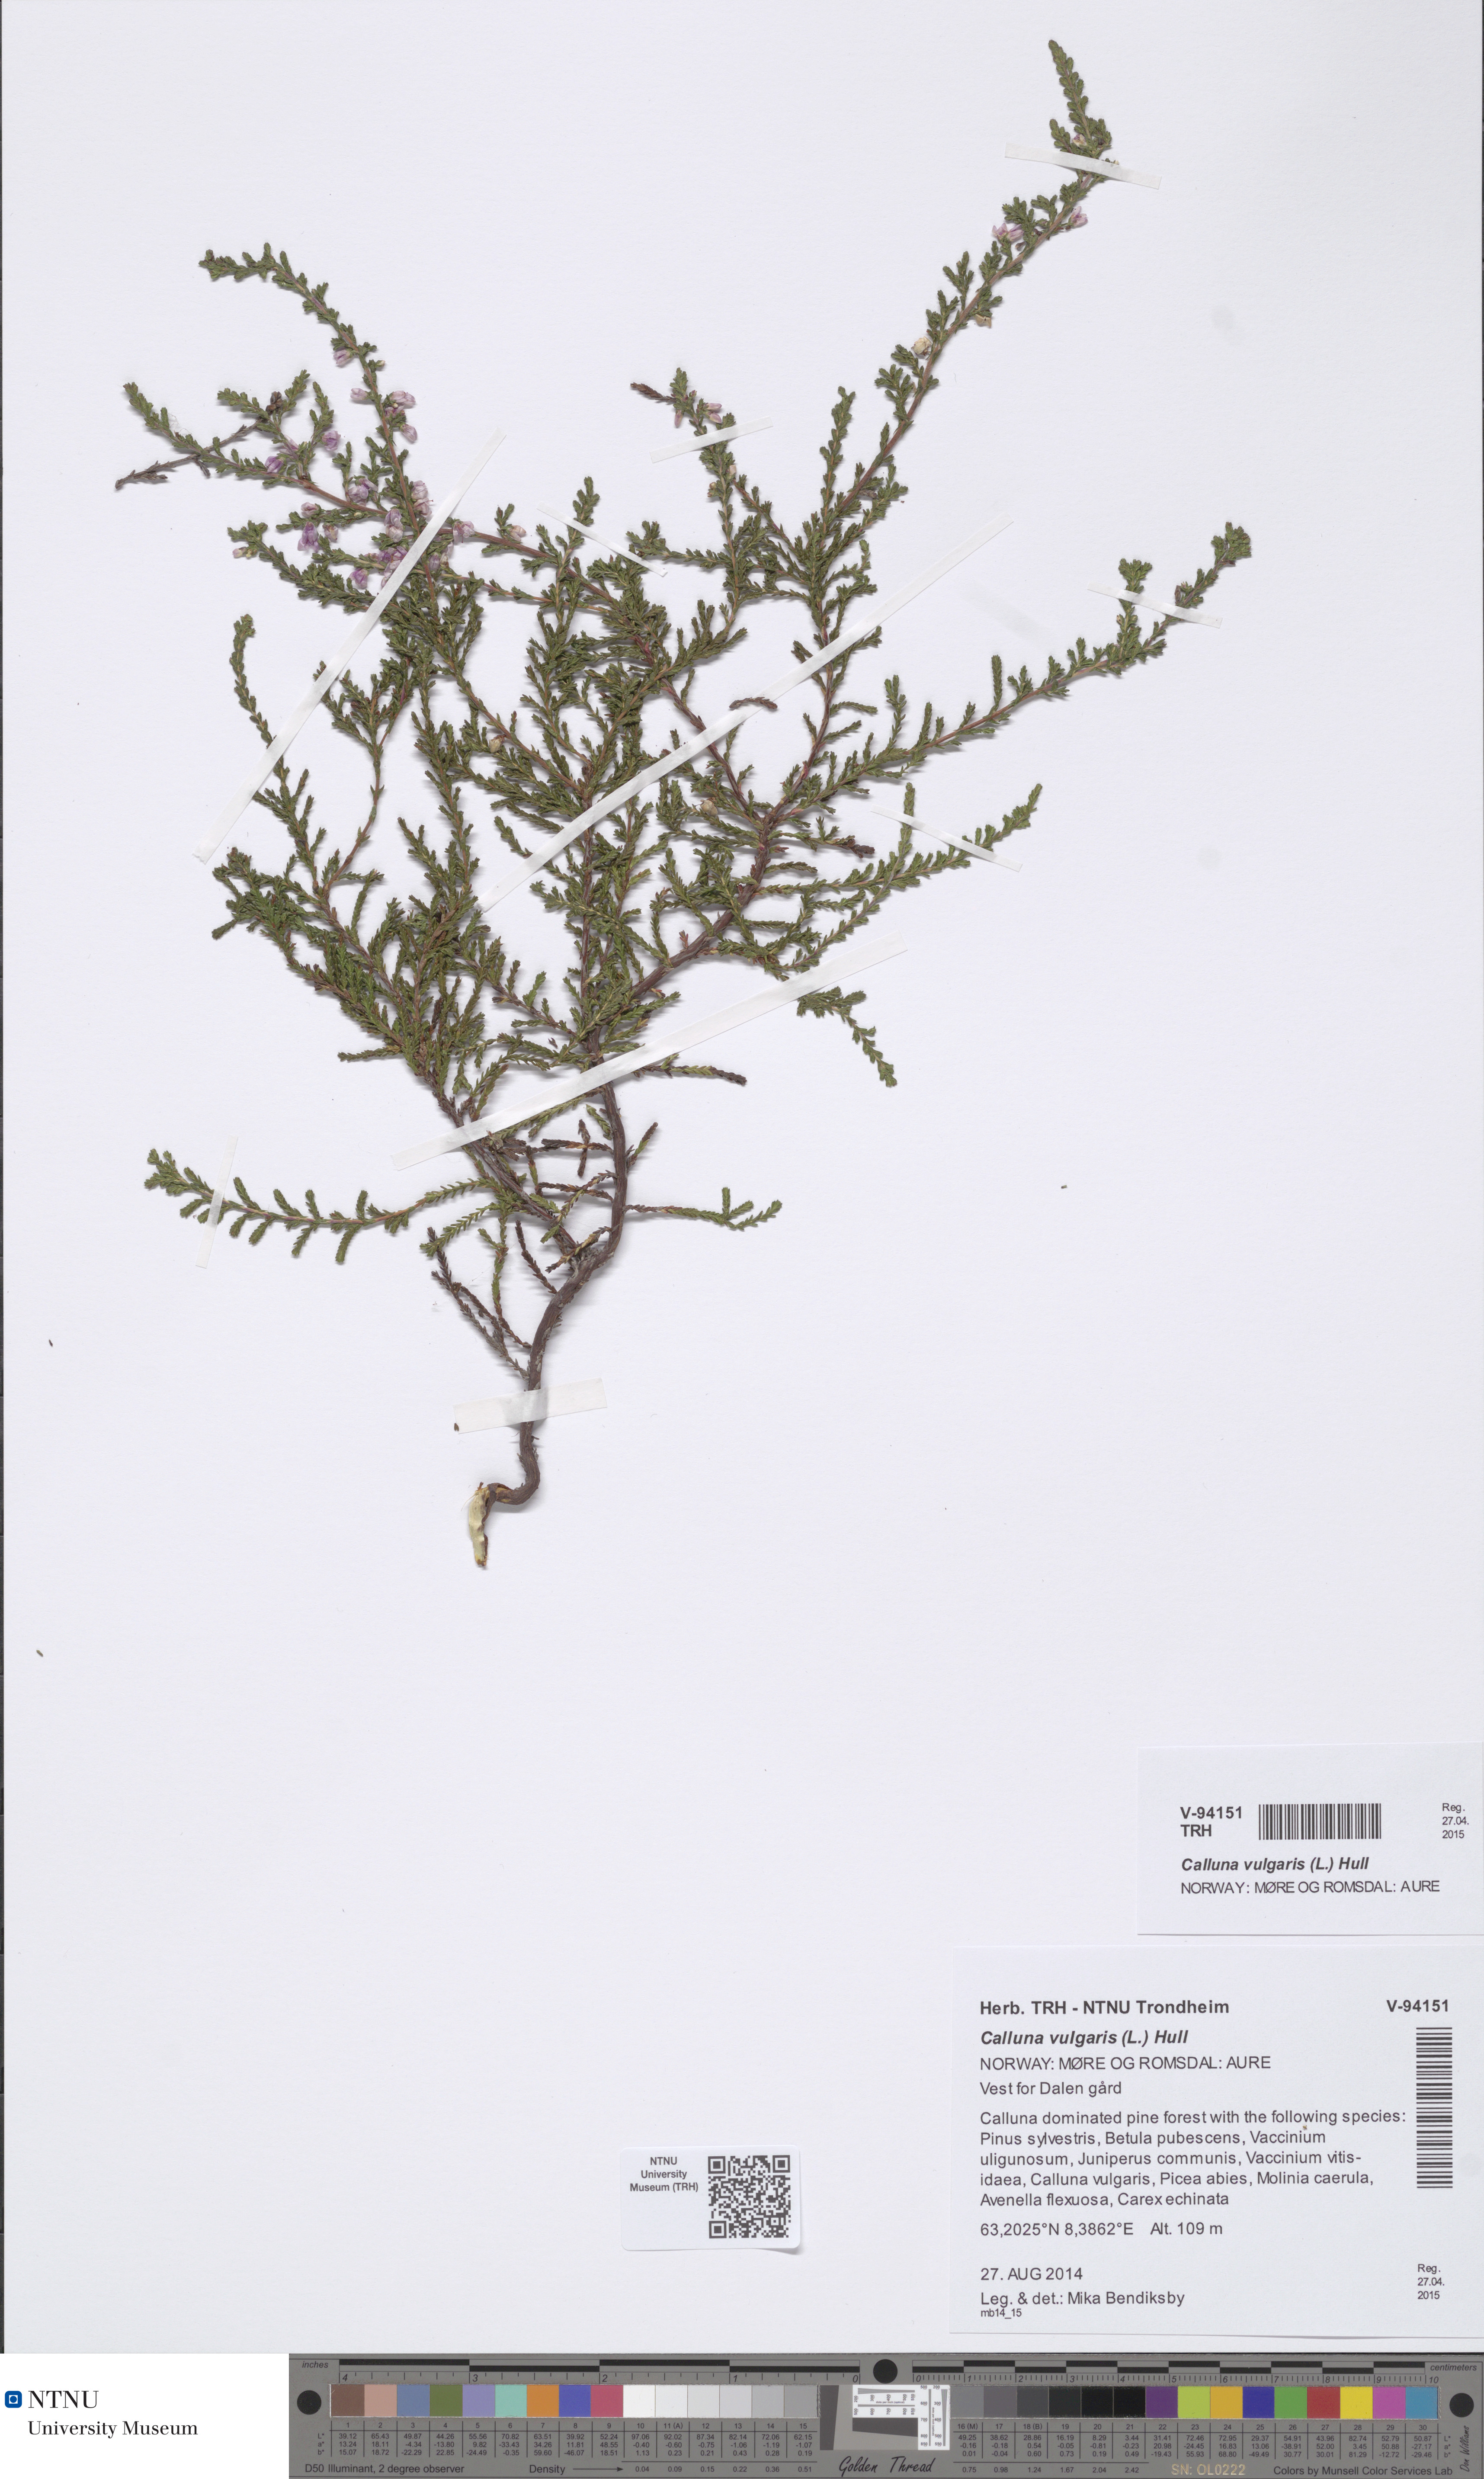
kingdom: Plantae
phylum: Tracheophyta
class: Magnoliopsida
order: Ericales
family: Ericaceae
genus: Calluna
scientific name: Calluna vulgaris
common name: Heather
